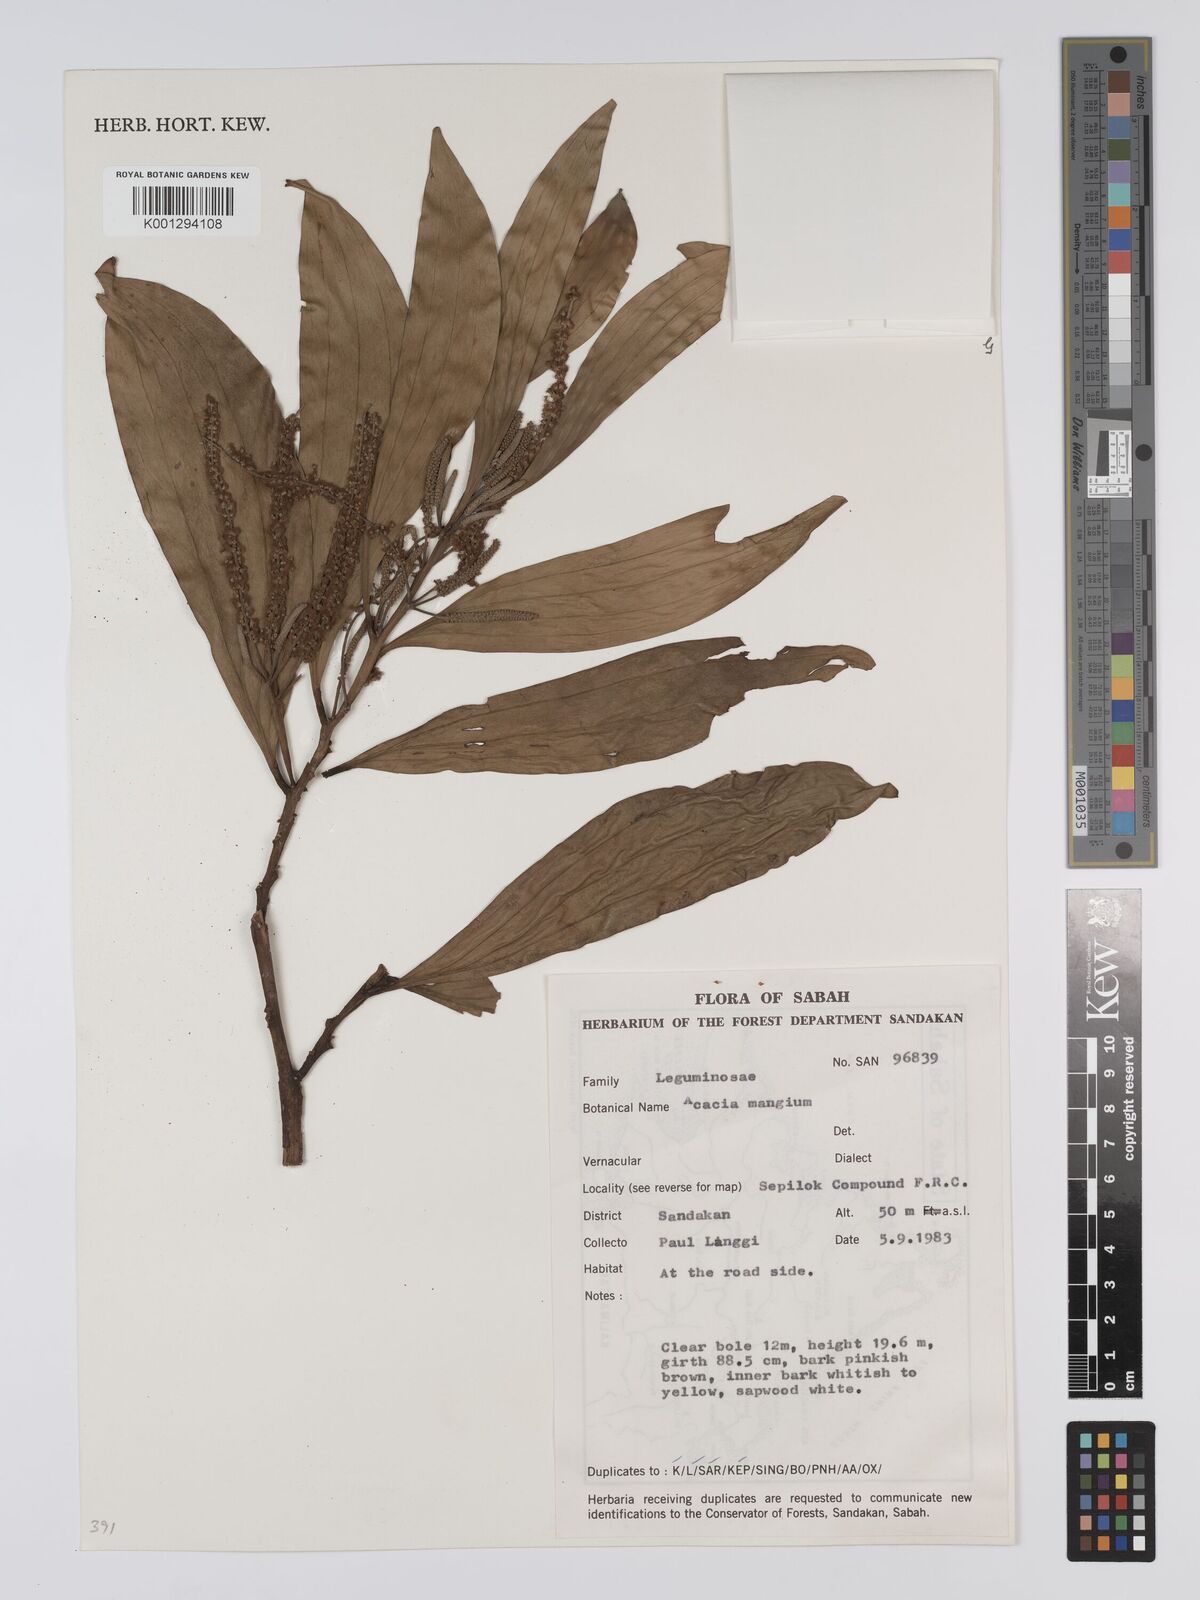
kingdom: Plantae
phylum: Tracheophyta
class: Magnoliopsida
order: Fabales
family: Fabaceae
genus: Acacia
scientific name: Acacia
